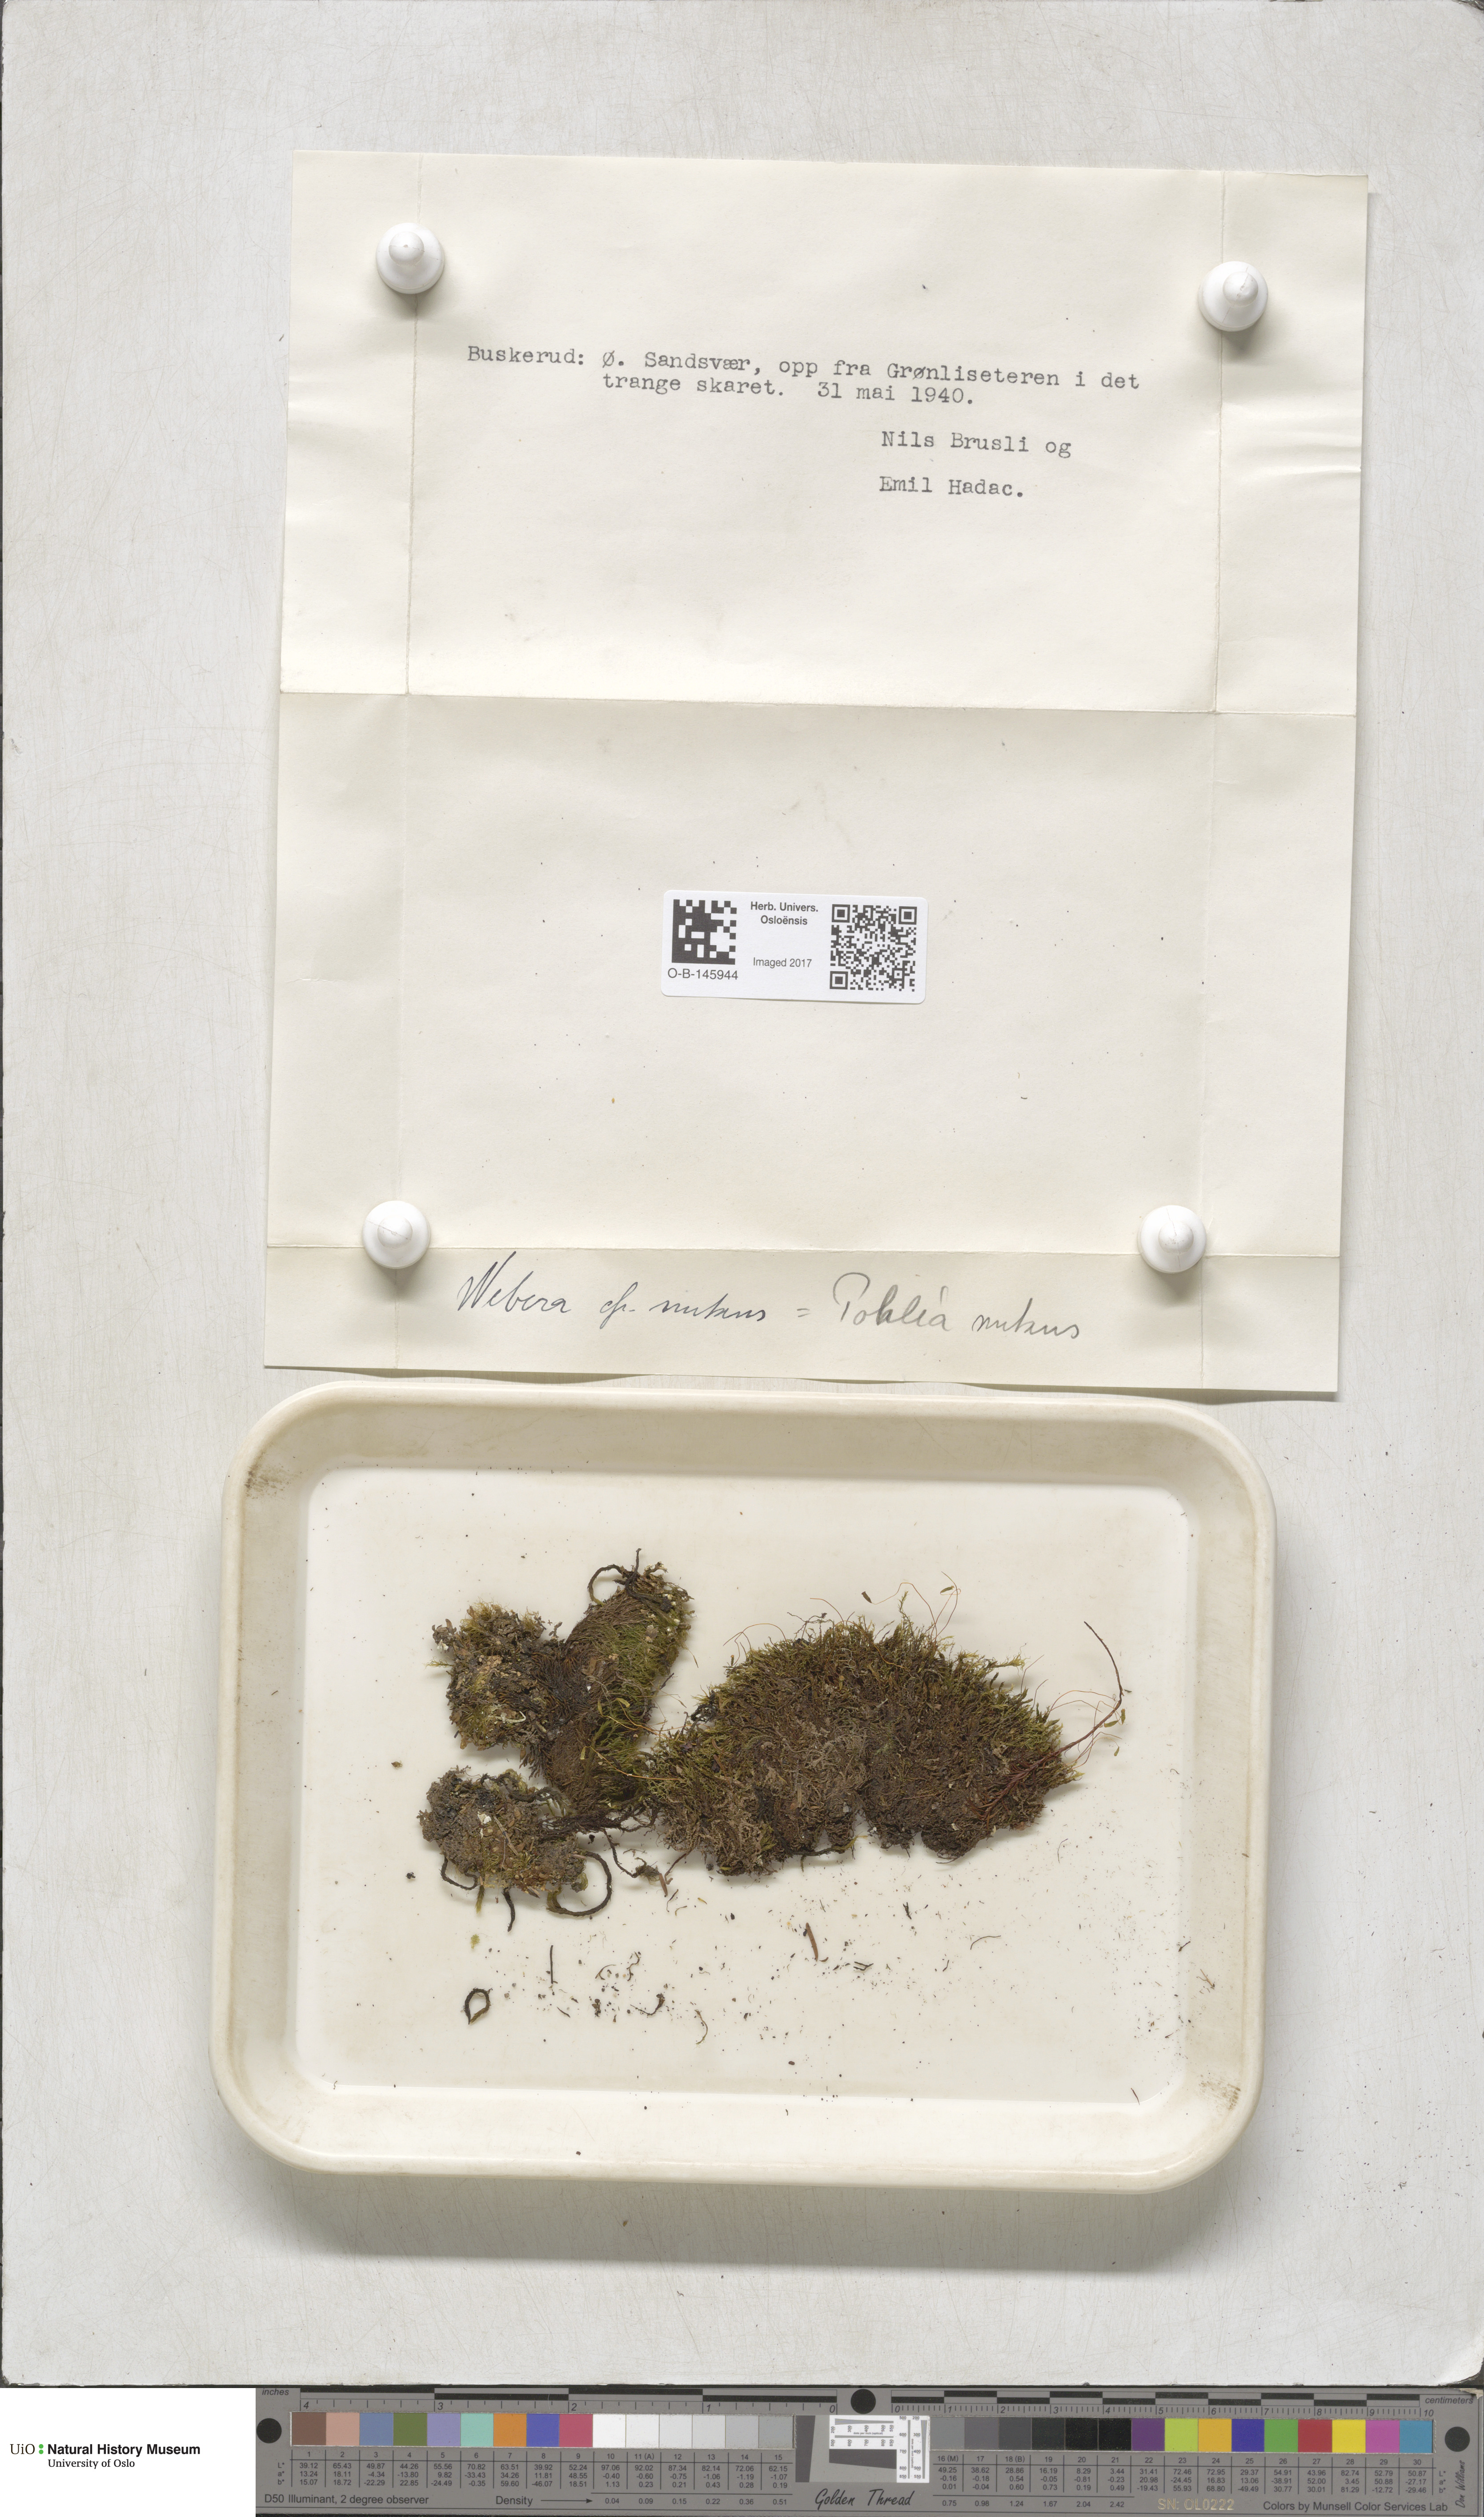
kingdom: Plantae
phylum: Bryophyta
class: Bryopsida
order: Bryales
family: Mniaceae
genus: Pohlia
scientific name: Pohlia nutans
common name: Nodding thread-moss
